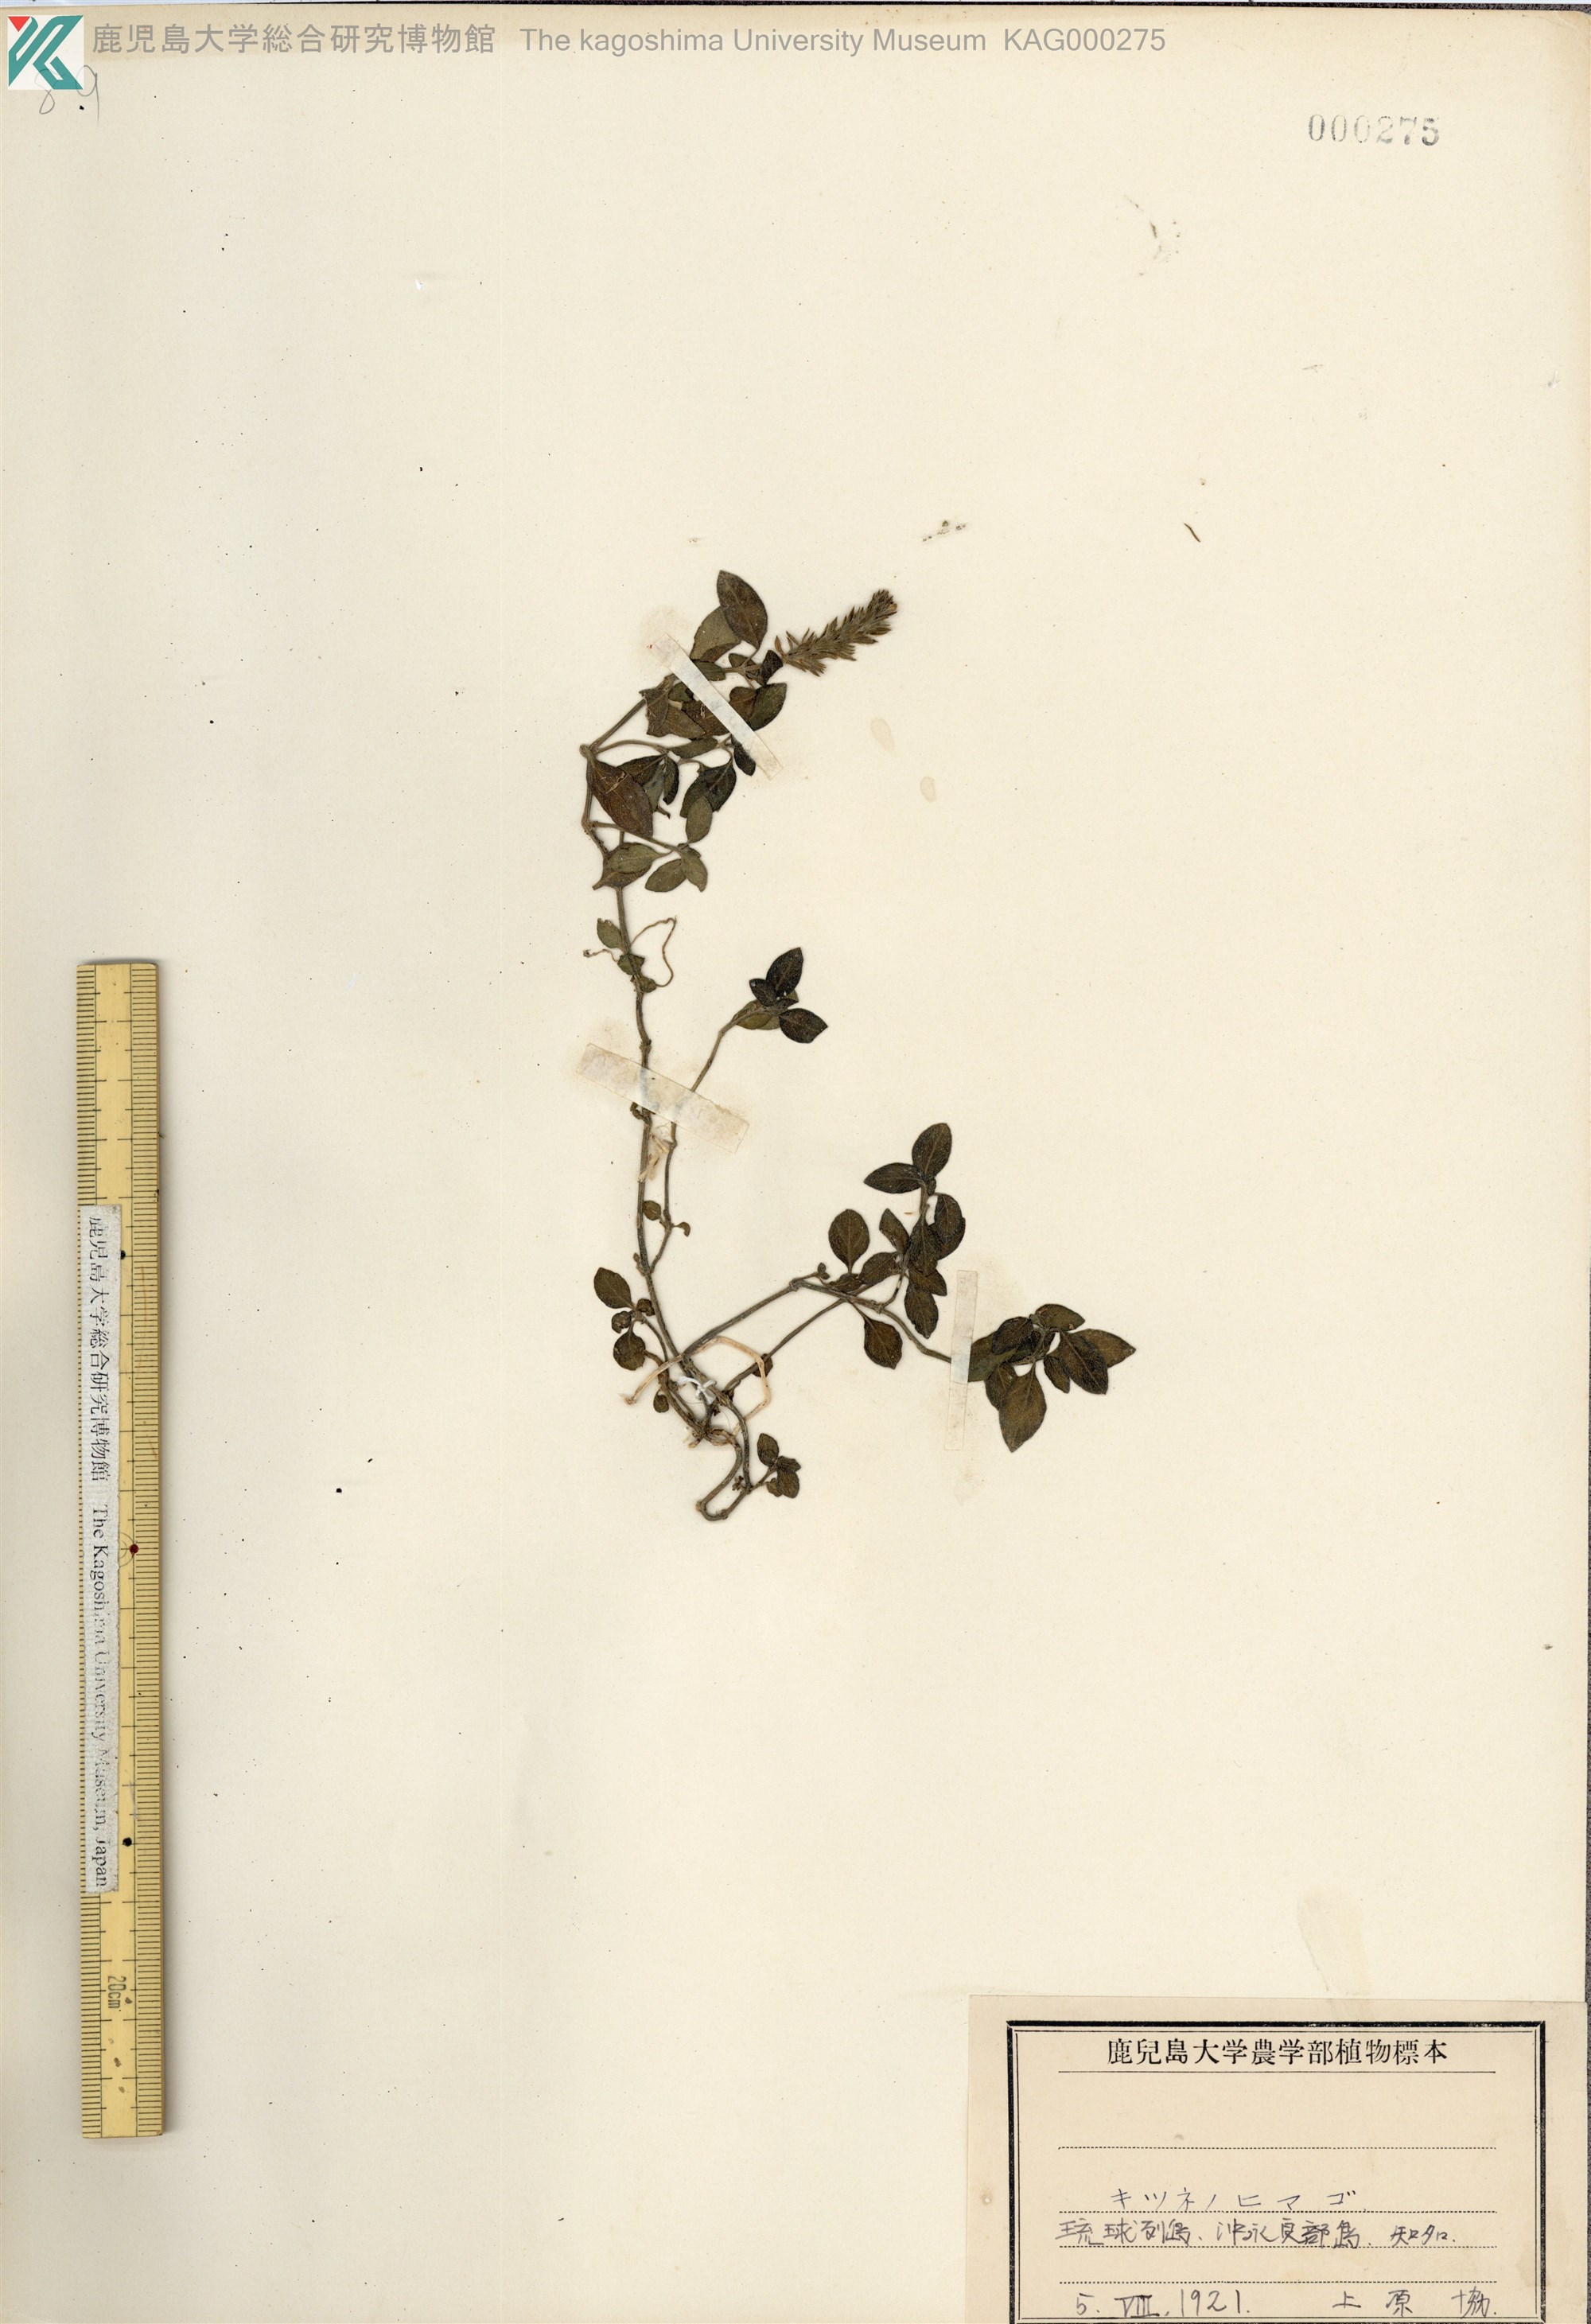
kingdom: Plantae
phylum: Tracheophyta
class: Magnoliopsida
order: Lamiales
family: Acanthaceae
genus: Rostellularia
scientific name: Rostellularia procumbens
